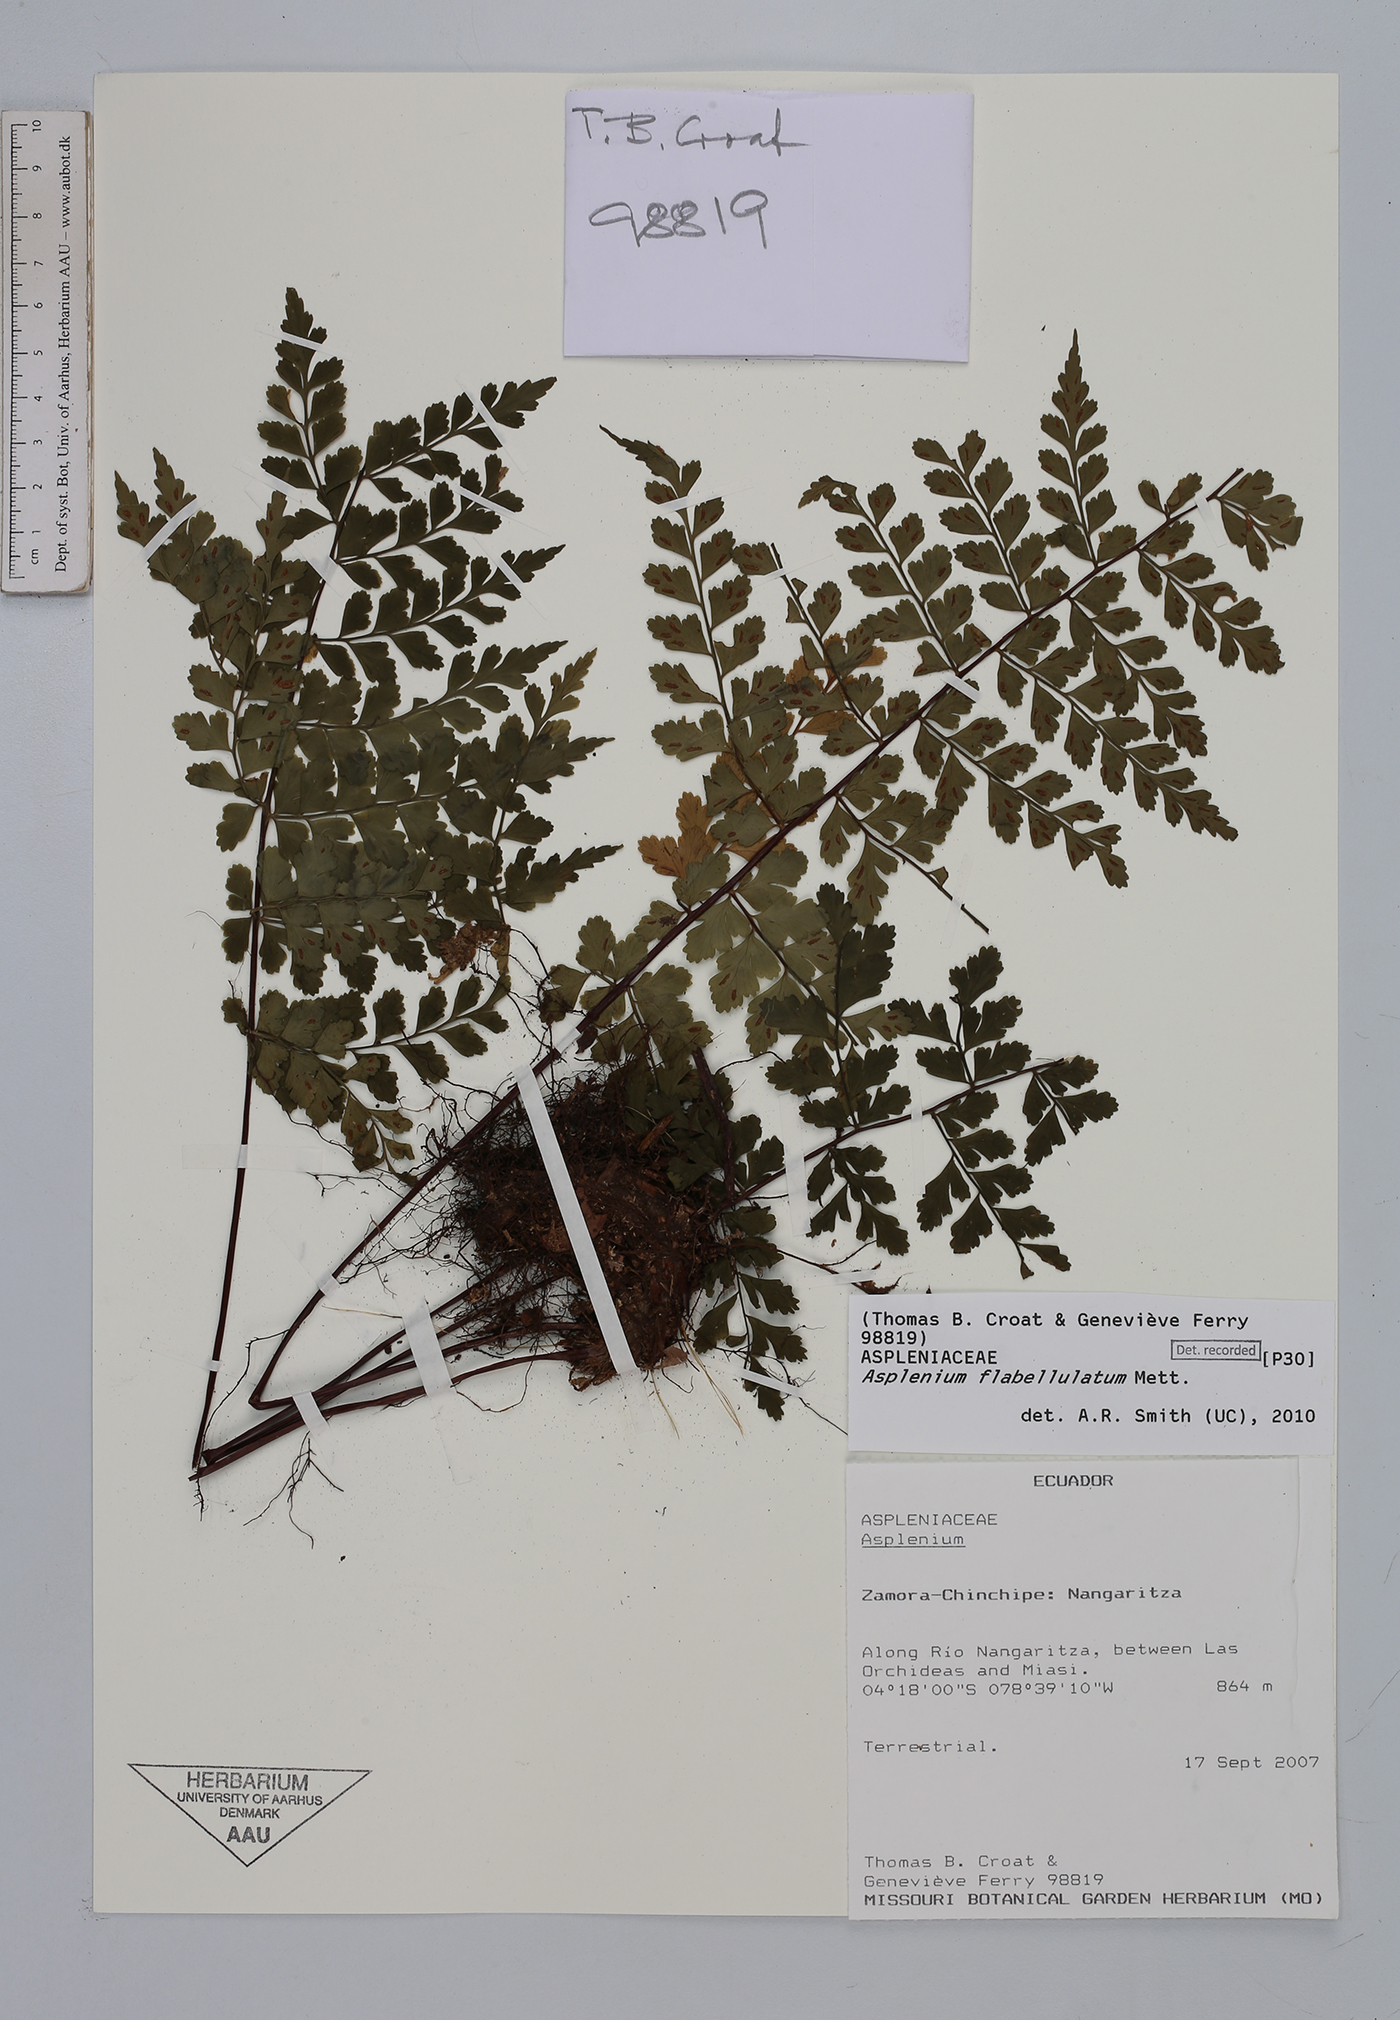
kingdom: Plantae
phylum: Tracheophyta
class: Polypodiopsida
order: Polypodiales
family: Aspleniaceae
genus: Asplenium
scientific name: Asplenium flabellulatum
